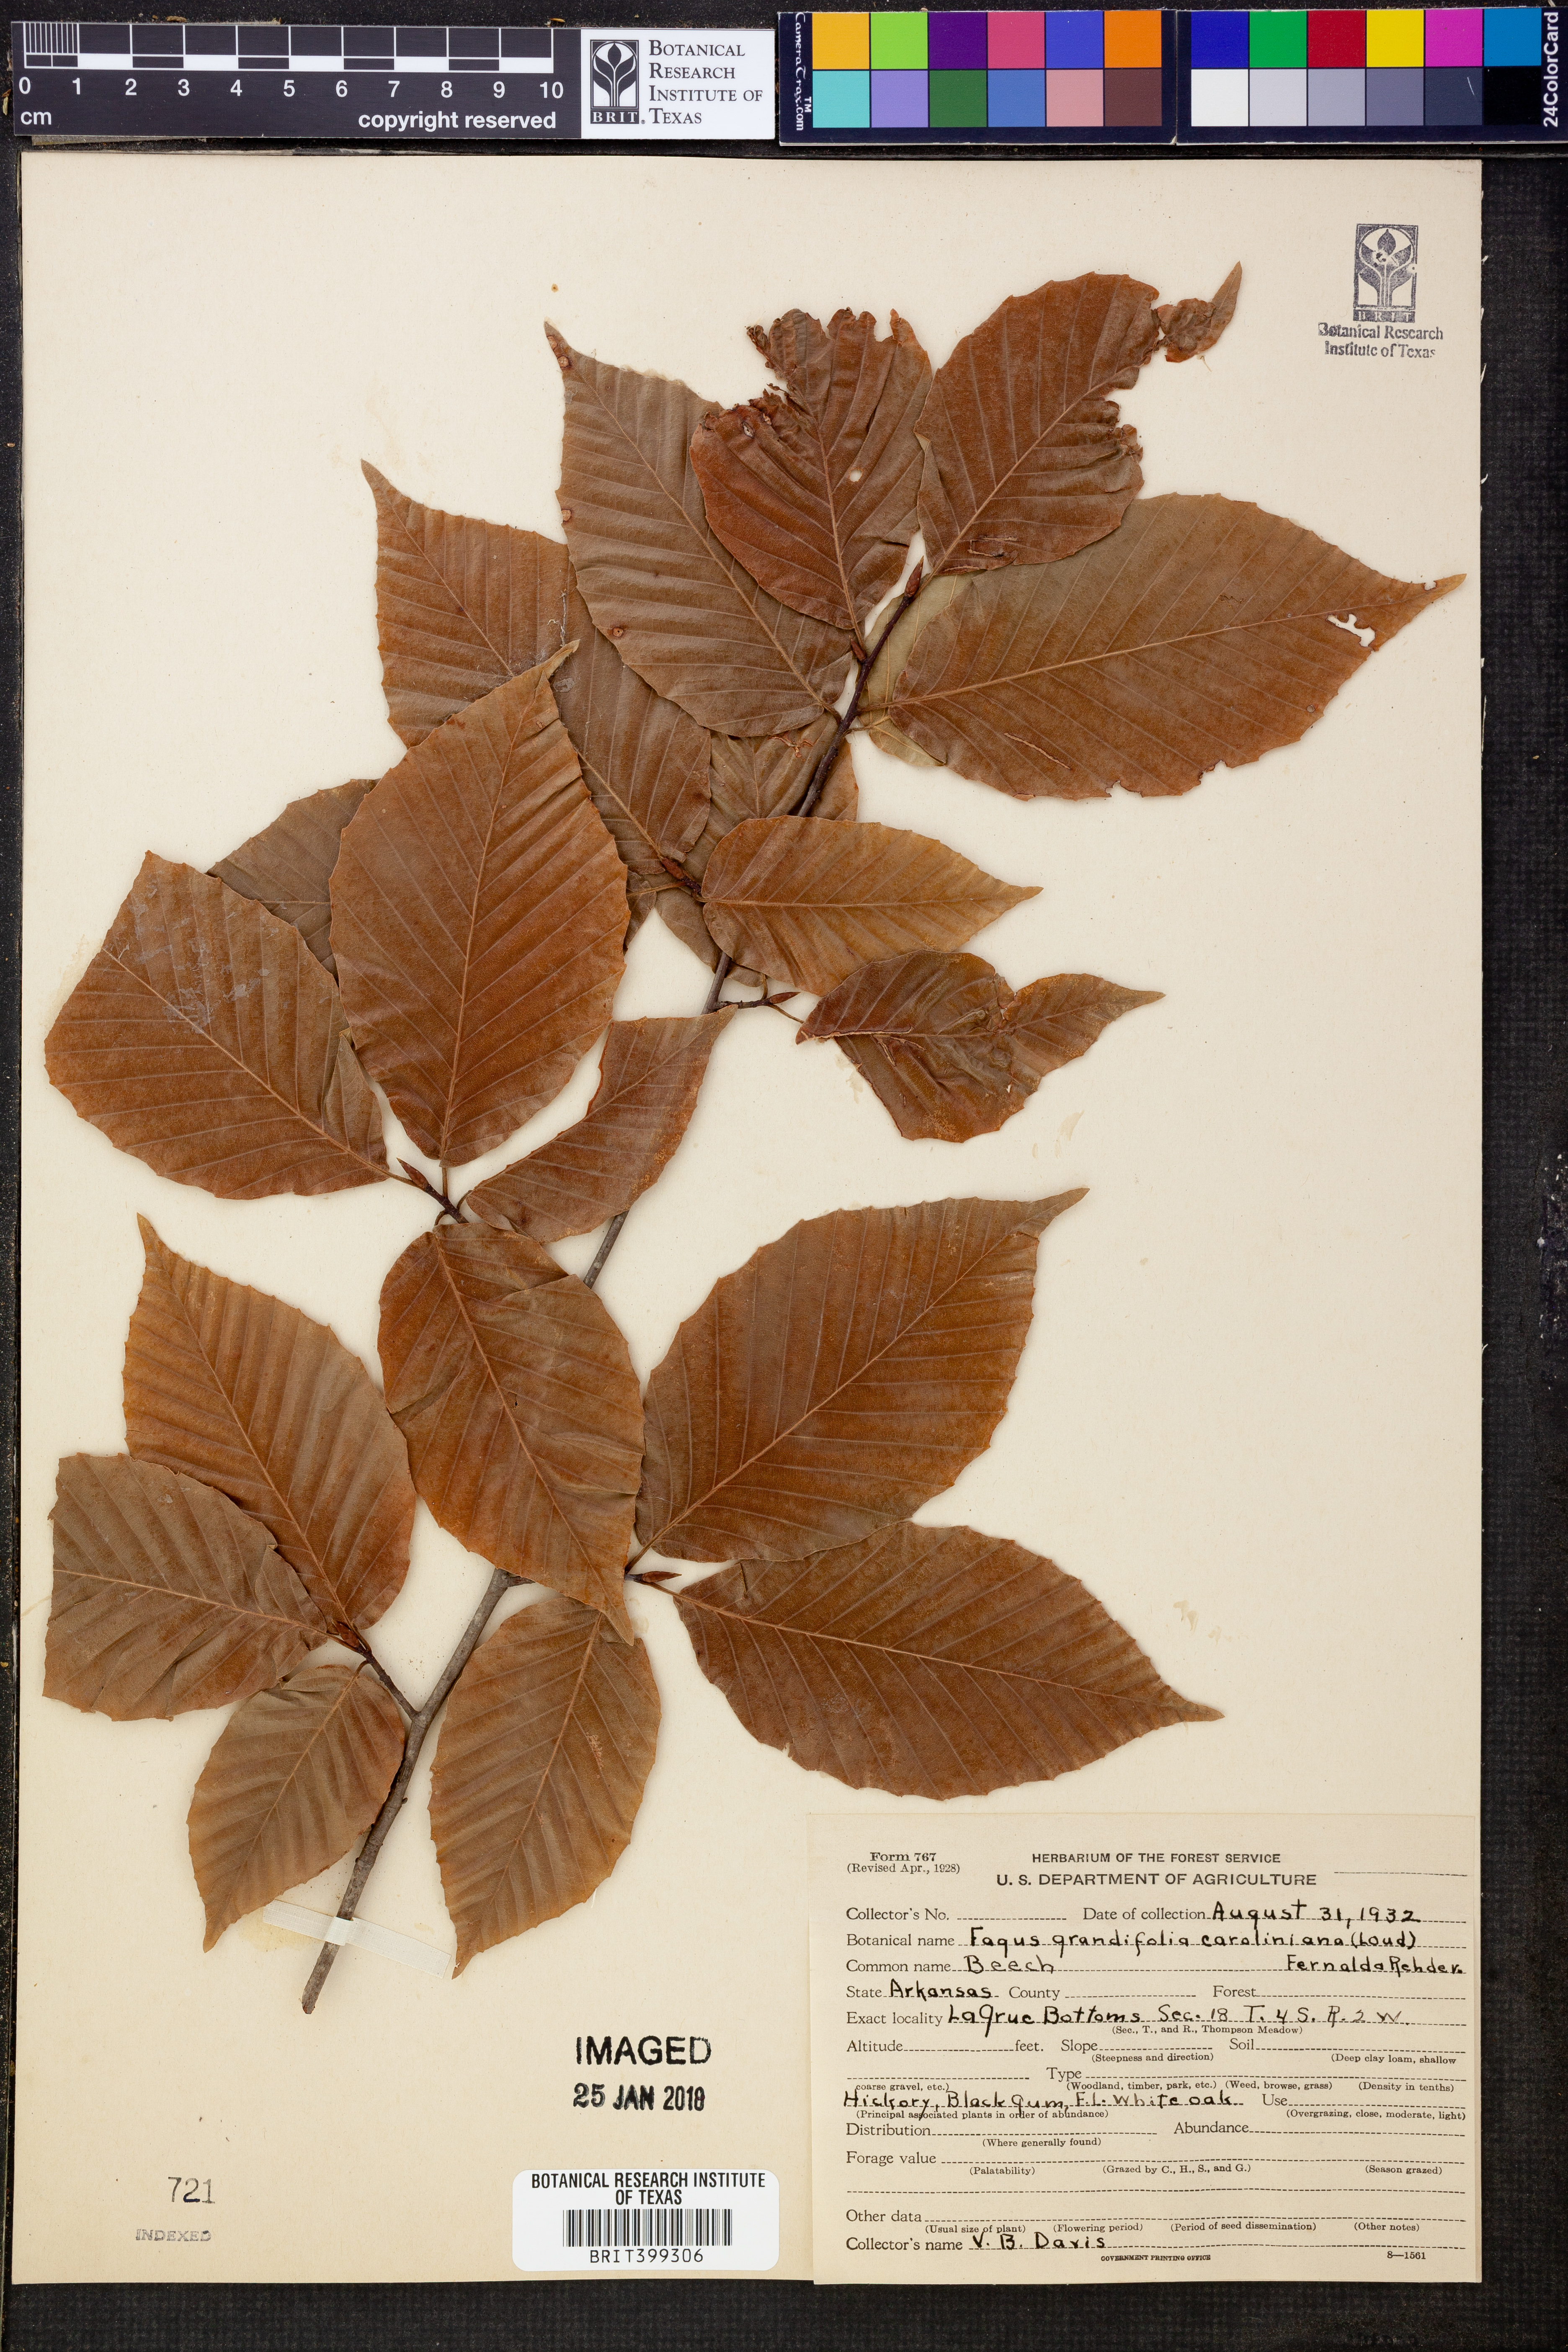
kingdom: Plantae
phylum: Tracheophyta
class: Magnoliopsida
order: Fagales
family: Fagaceae
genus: Fagus
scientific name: Fagus grandifolia
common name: American beech
